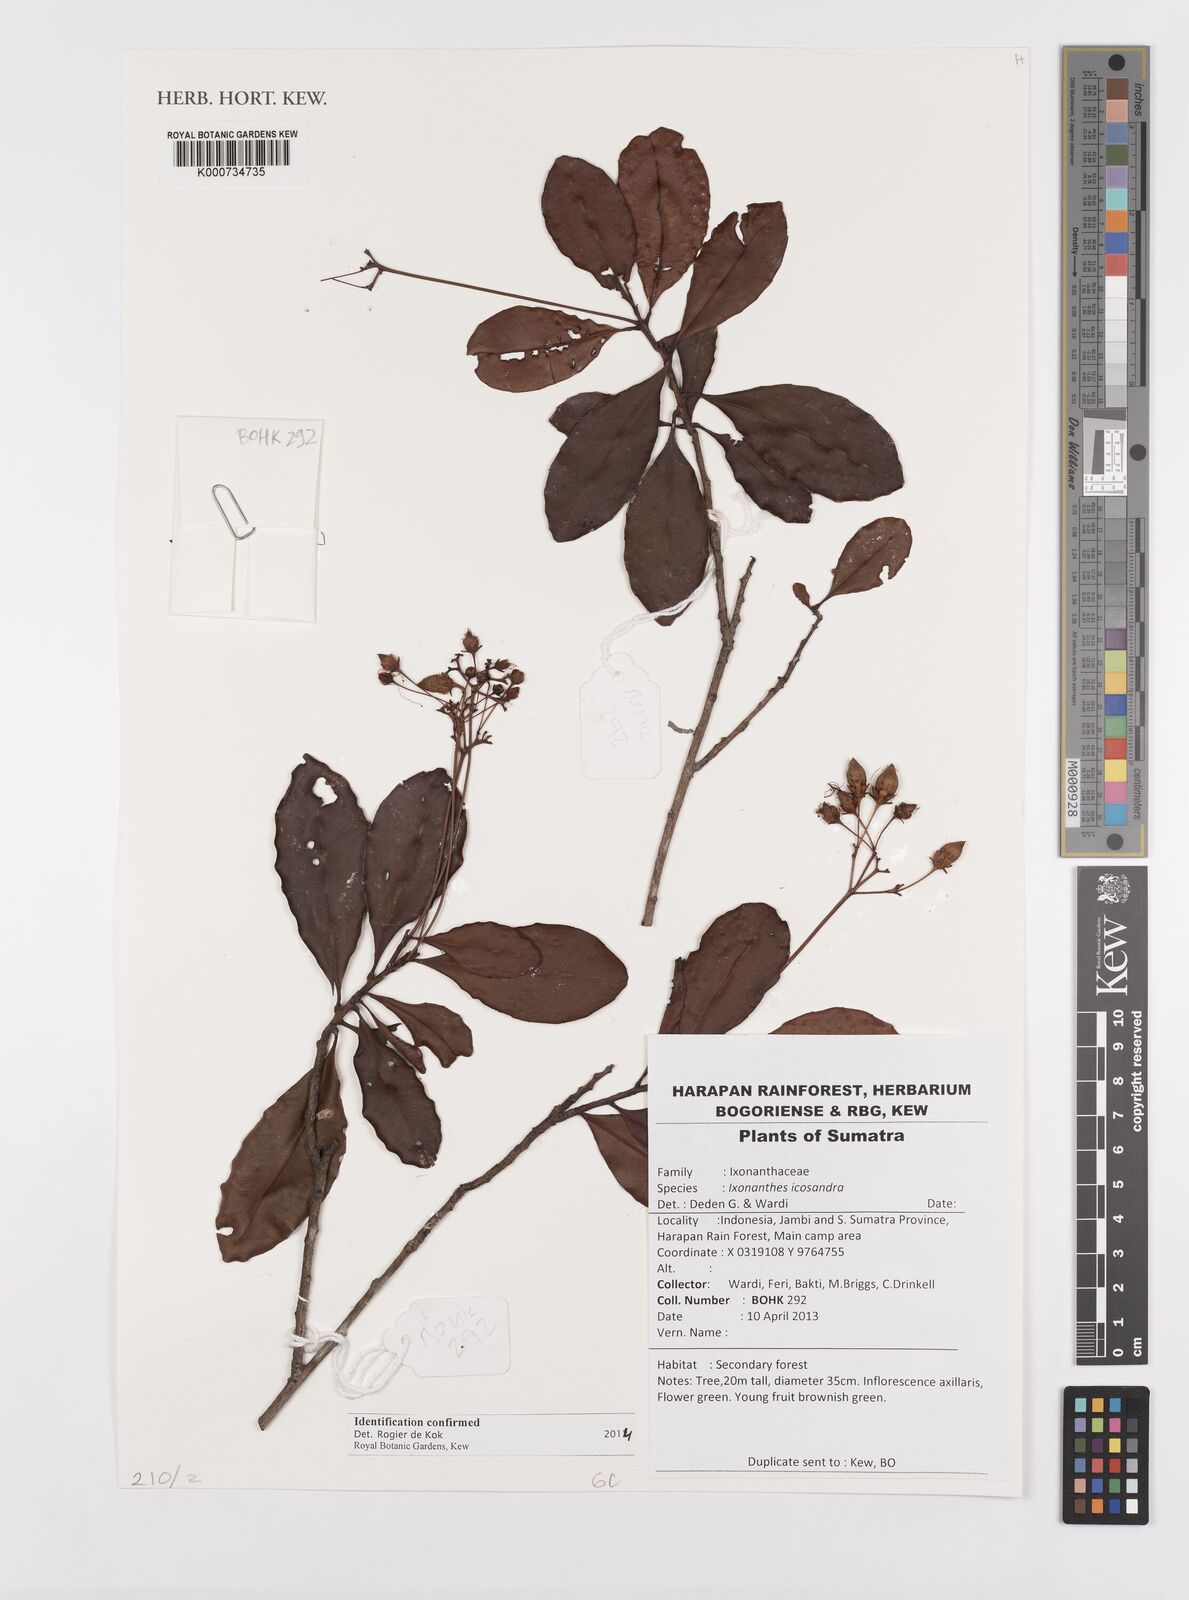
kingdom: Plantae
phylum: Tracheophyta
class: Magnoliopsida
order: Malpighiales
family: Ixonanthaceae
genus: Ixonanthes
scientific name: Ixonanthes icosandra
